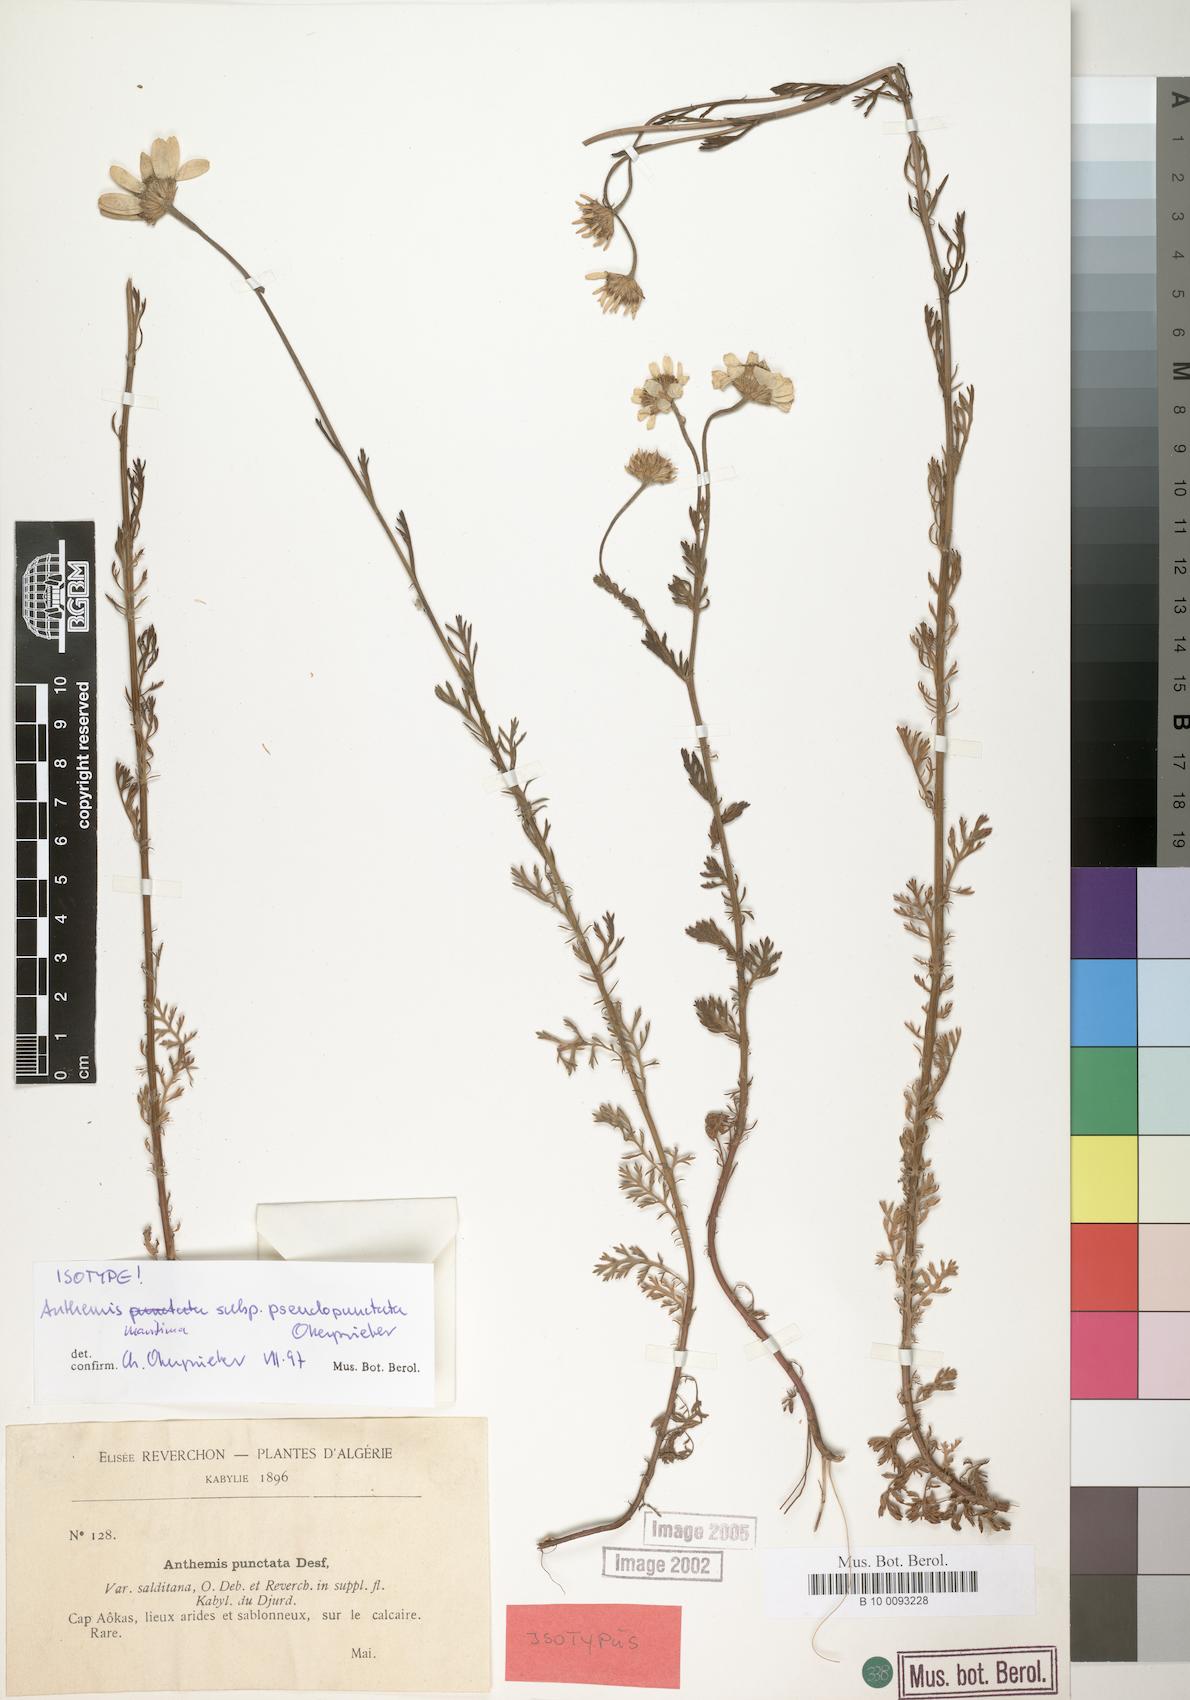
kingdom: Plantae
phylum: Tracheophyta
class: Magnoliopsida
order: Asterales
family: Asteraceae
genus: Anthemis
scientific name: Anthemis maritima
